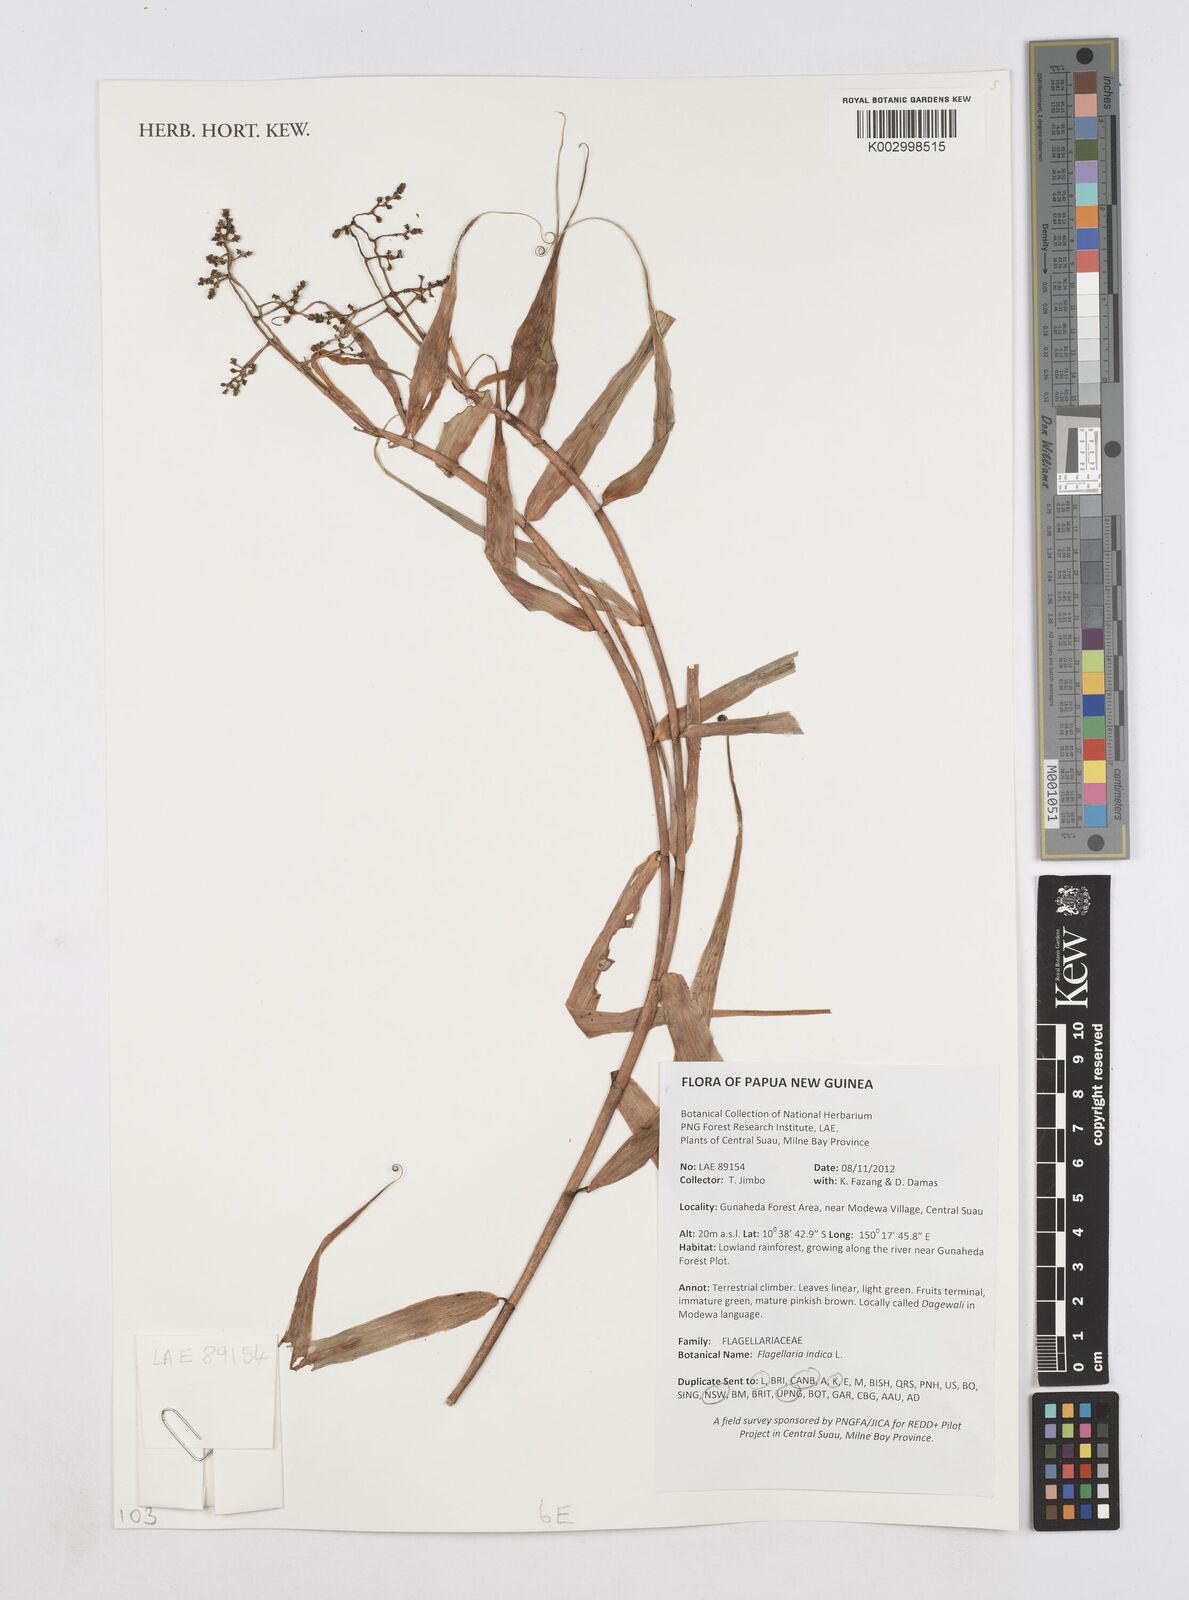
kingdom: Plantae
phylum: Tracheophyta
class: Liliopsida
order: Poales
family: Flagellariaceae
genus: Flagellaria
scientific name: Flagellaria indica
